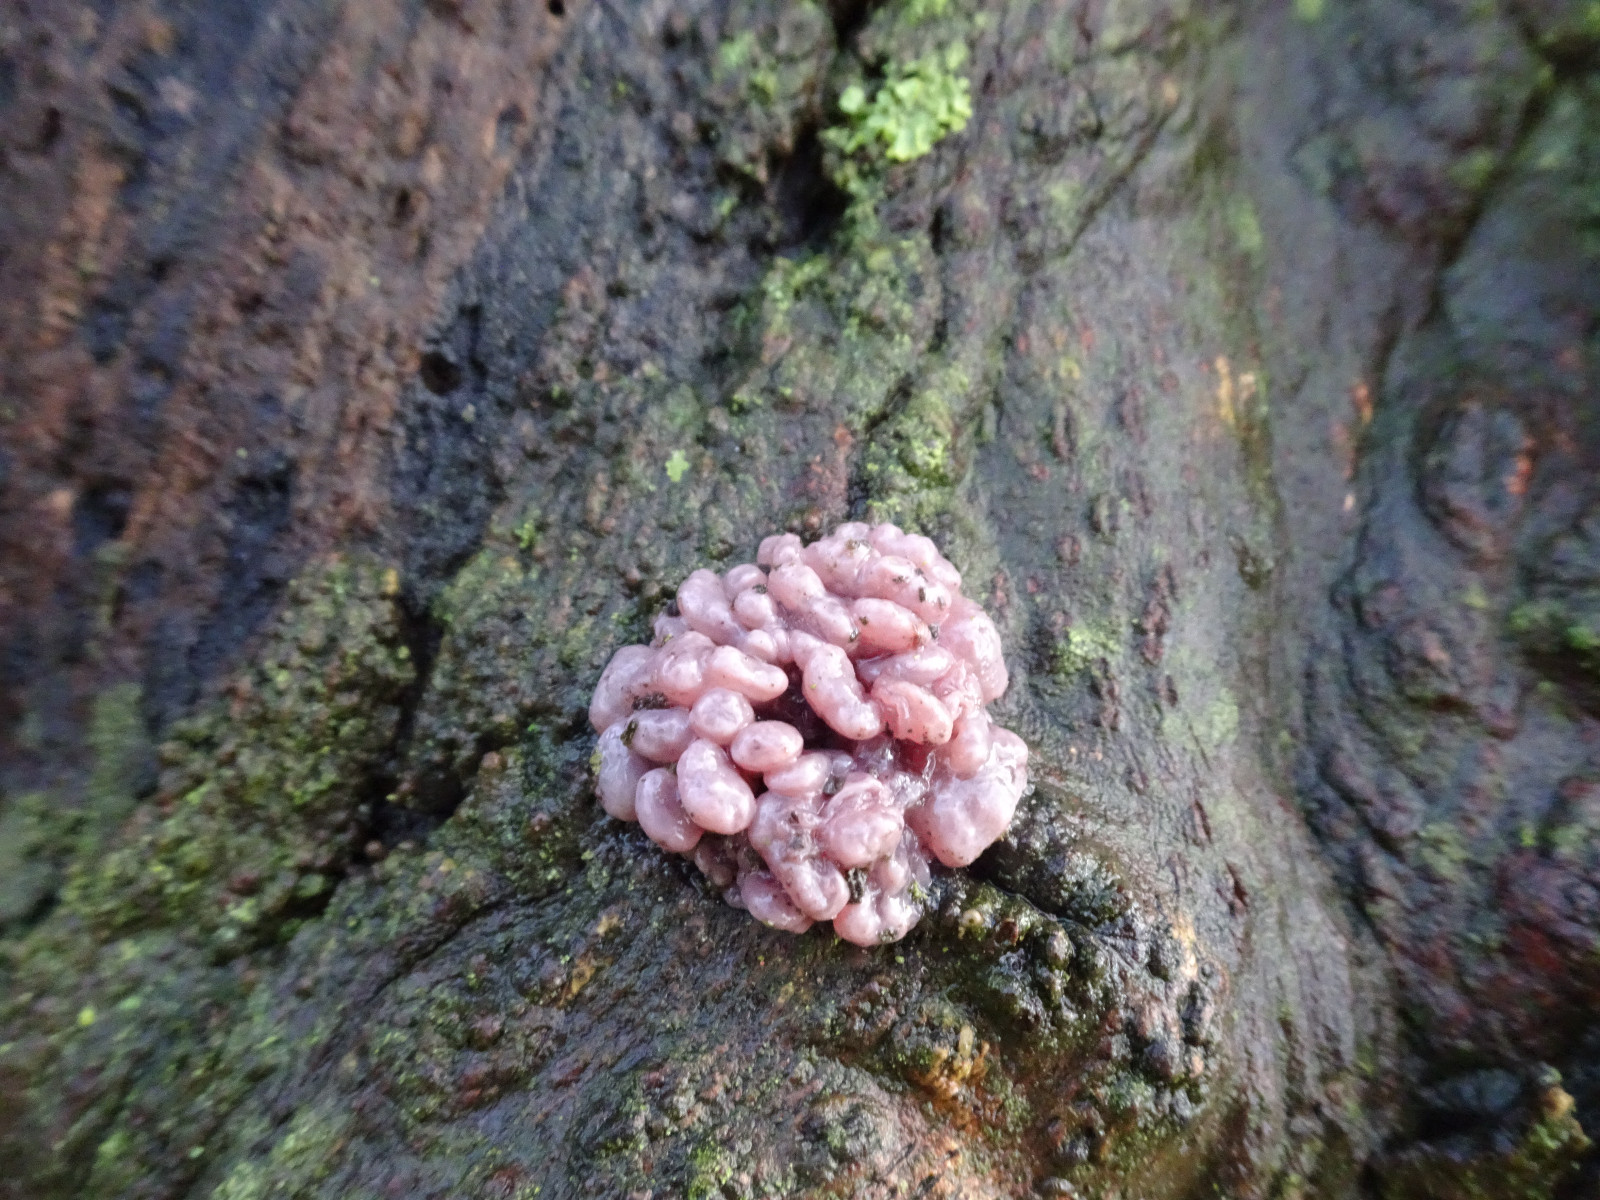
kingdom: Fungi
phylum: Ascomycota
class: Leotiomycetes
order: Helotiales
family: Gelatinodiscaceae
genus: Ascocoryne
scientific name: Ascocoryne sarcoides
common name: rødlilla sejskive
